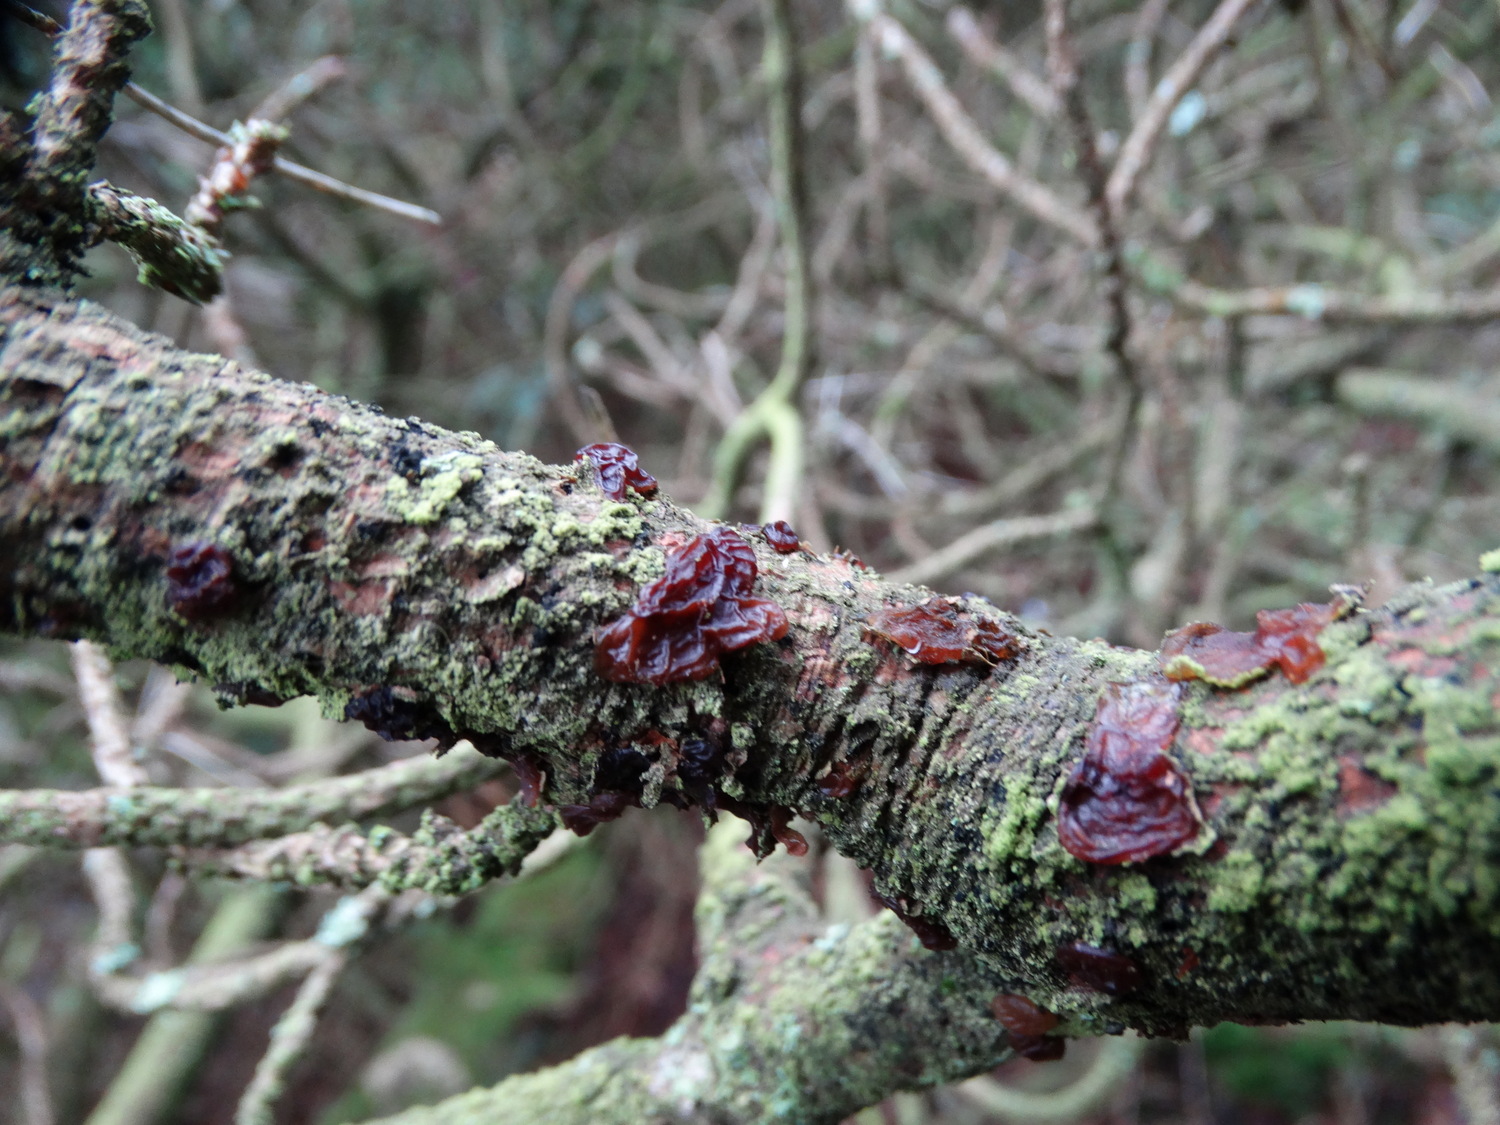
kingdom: Fungi
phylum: Basidiomycota
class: Agaricomycetes
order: Auriculariales
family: Auriculariaceae
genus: Exidia
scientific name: Exidia saccharina
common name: kandis-bævretop
